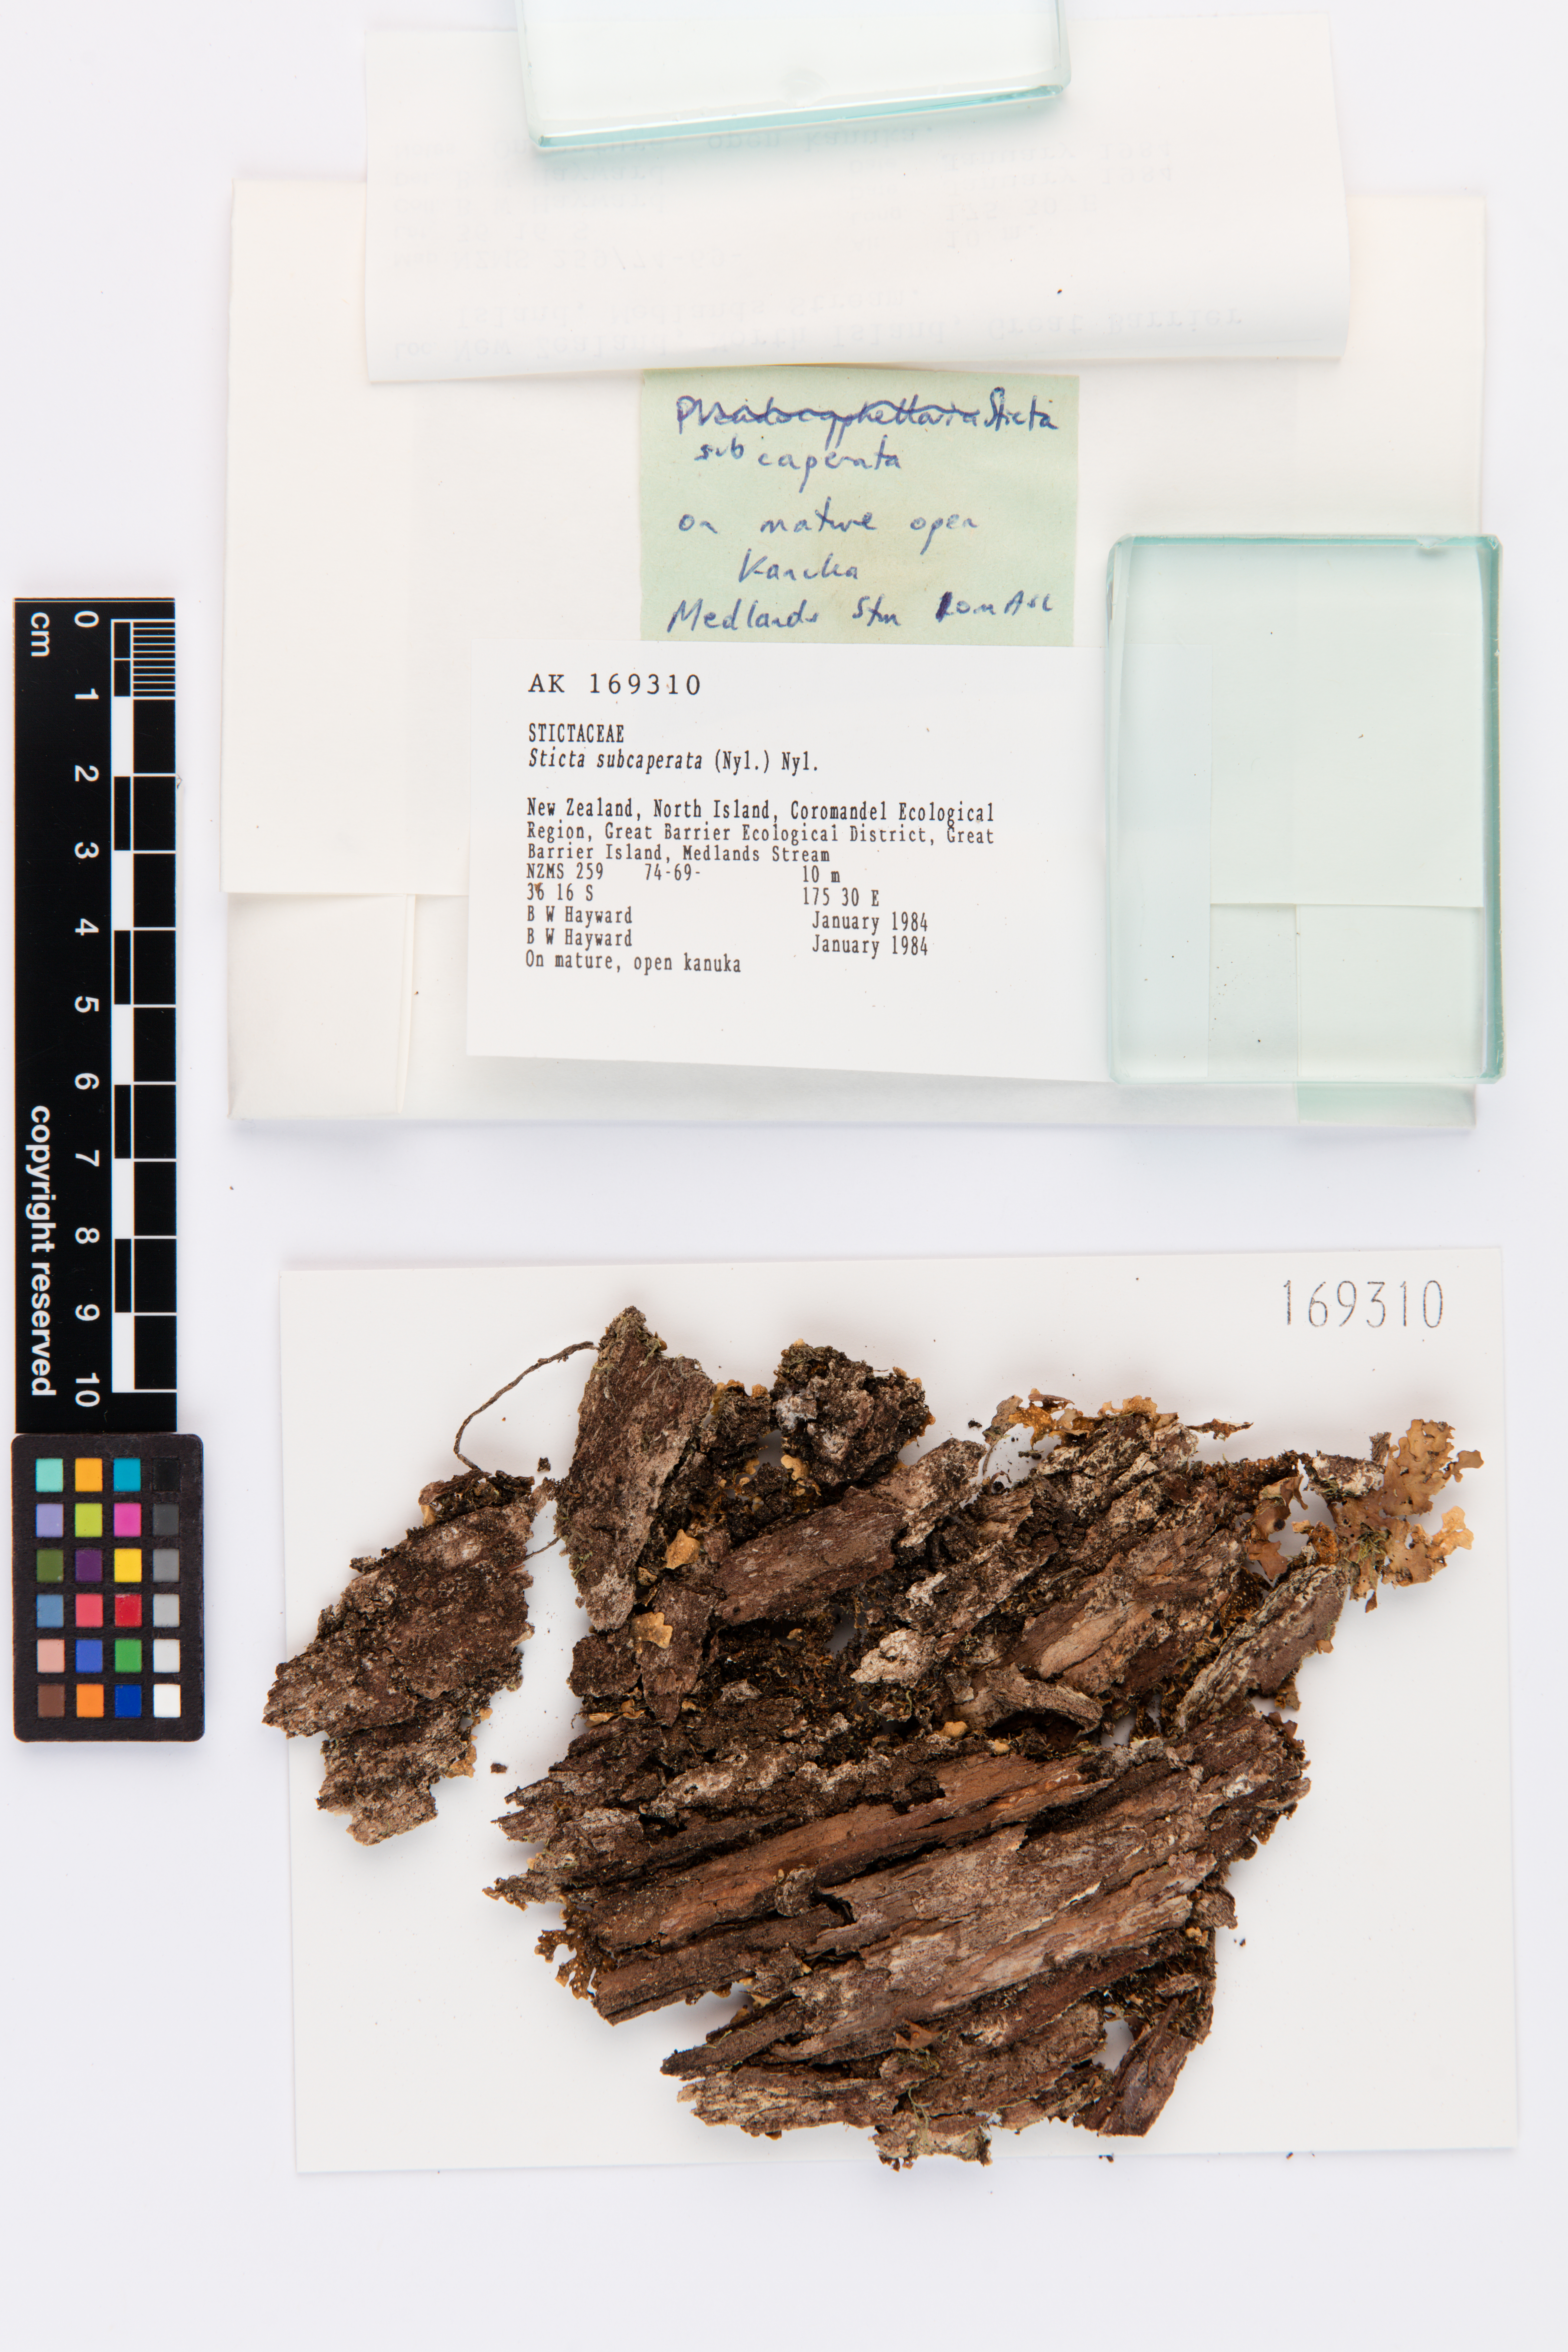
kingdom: Fungi
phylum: Ascomycota
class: Lecanoromycetes
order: Peltigerales
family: Lobariaceae
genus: Sticta
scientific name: Sticta subcaperata
